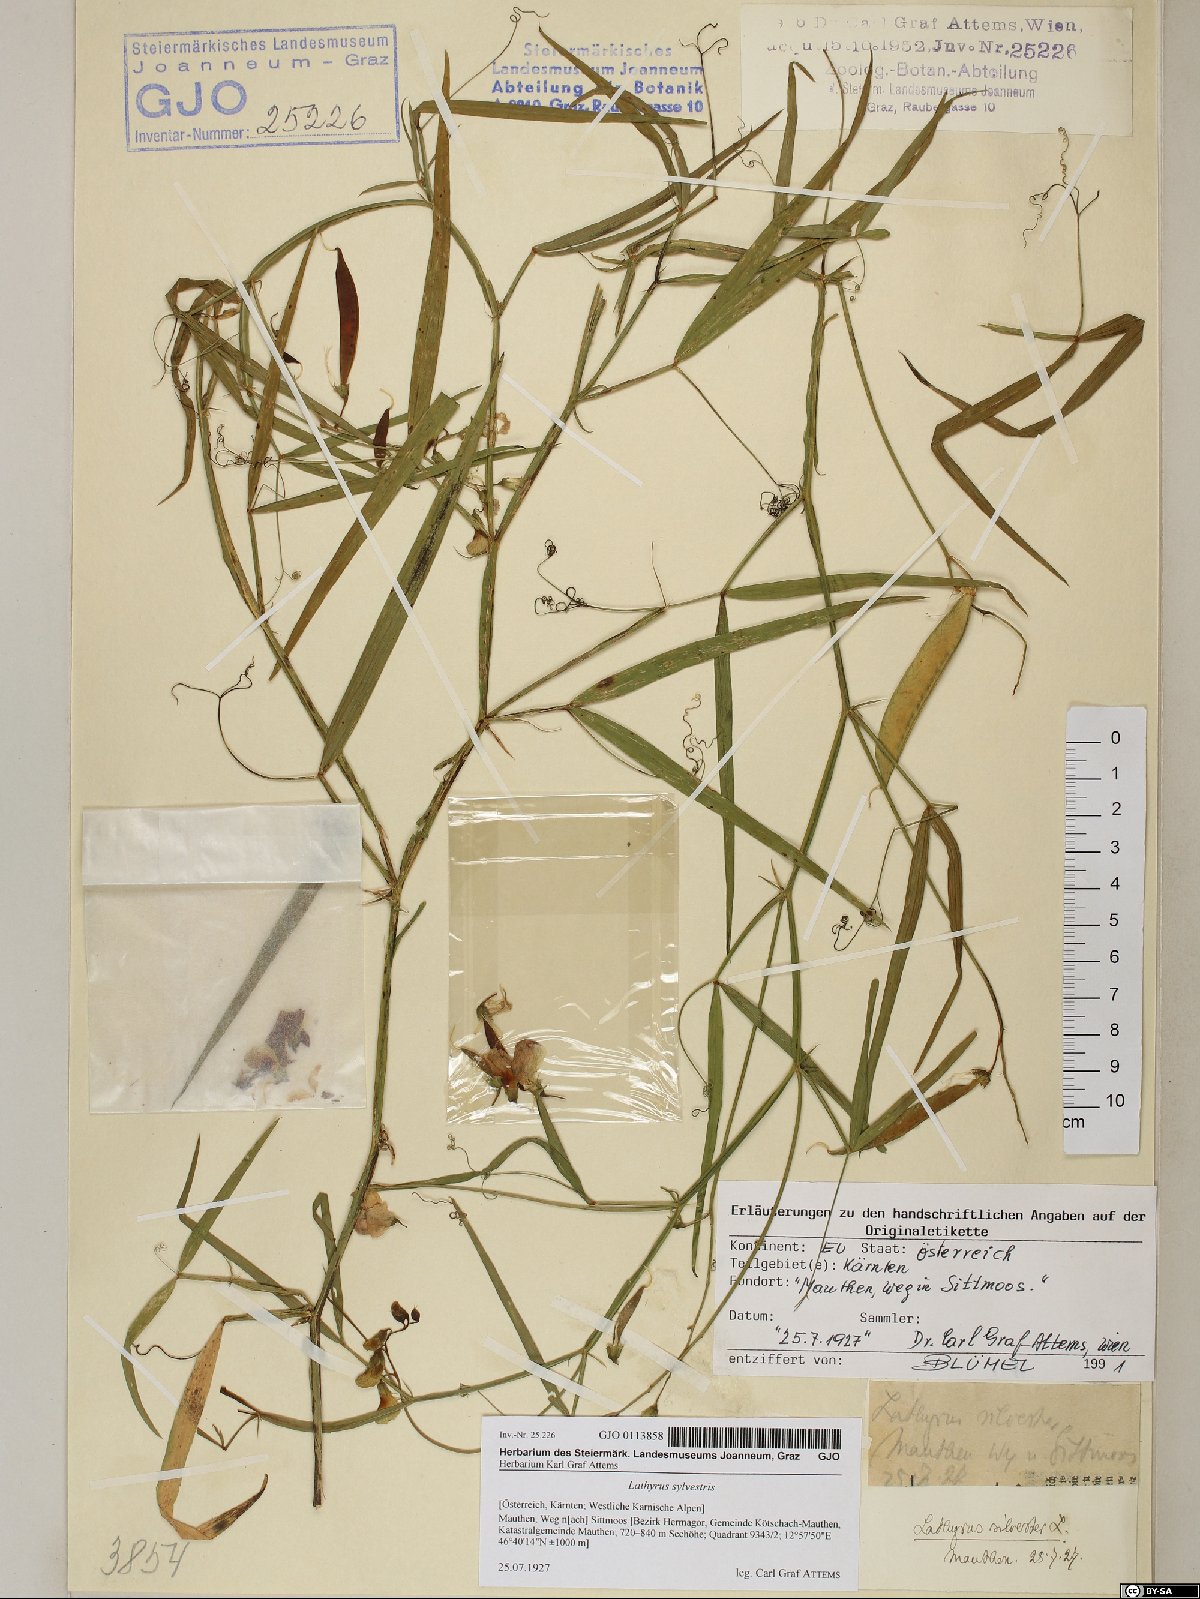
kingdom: Plantae
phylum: Tracheophyta
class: Magnoliopsida
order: Fabales
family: Fabaceae
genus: Lathyrus
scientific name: Lathyrus sylvestris
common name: Flat pea
